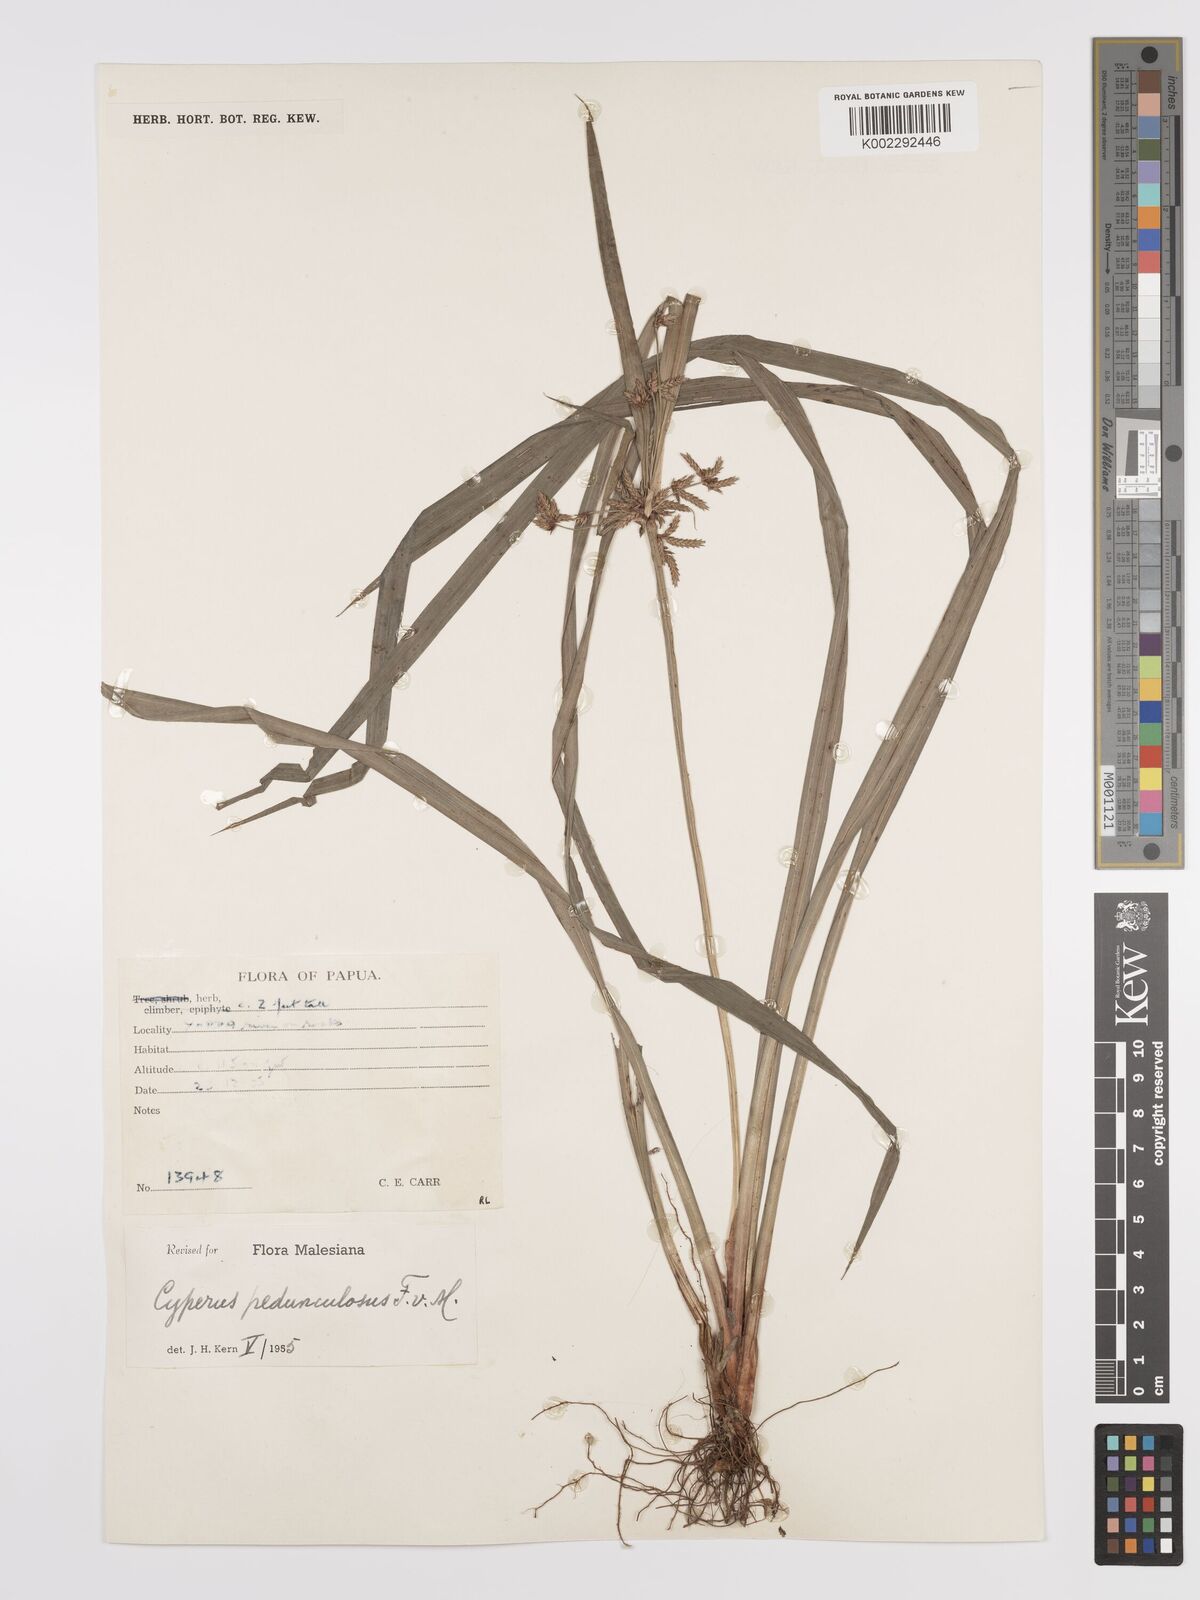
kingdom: Plantae
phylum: Tracheophyta
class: Liliopsida
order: Poales
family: Cyperaceae
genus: Cyperus
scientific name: Cyperus pedunculosus
